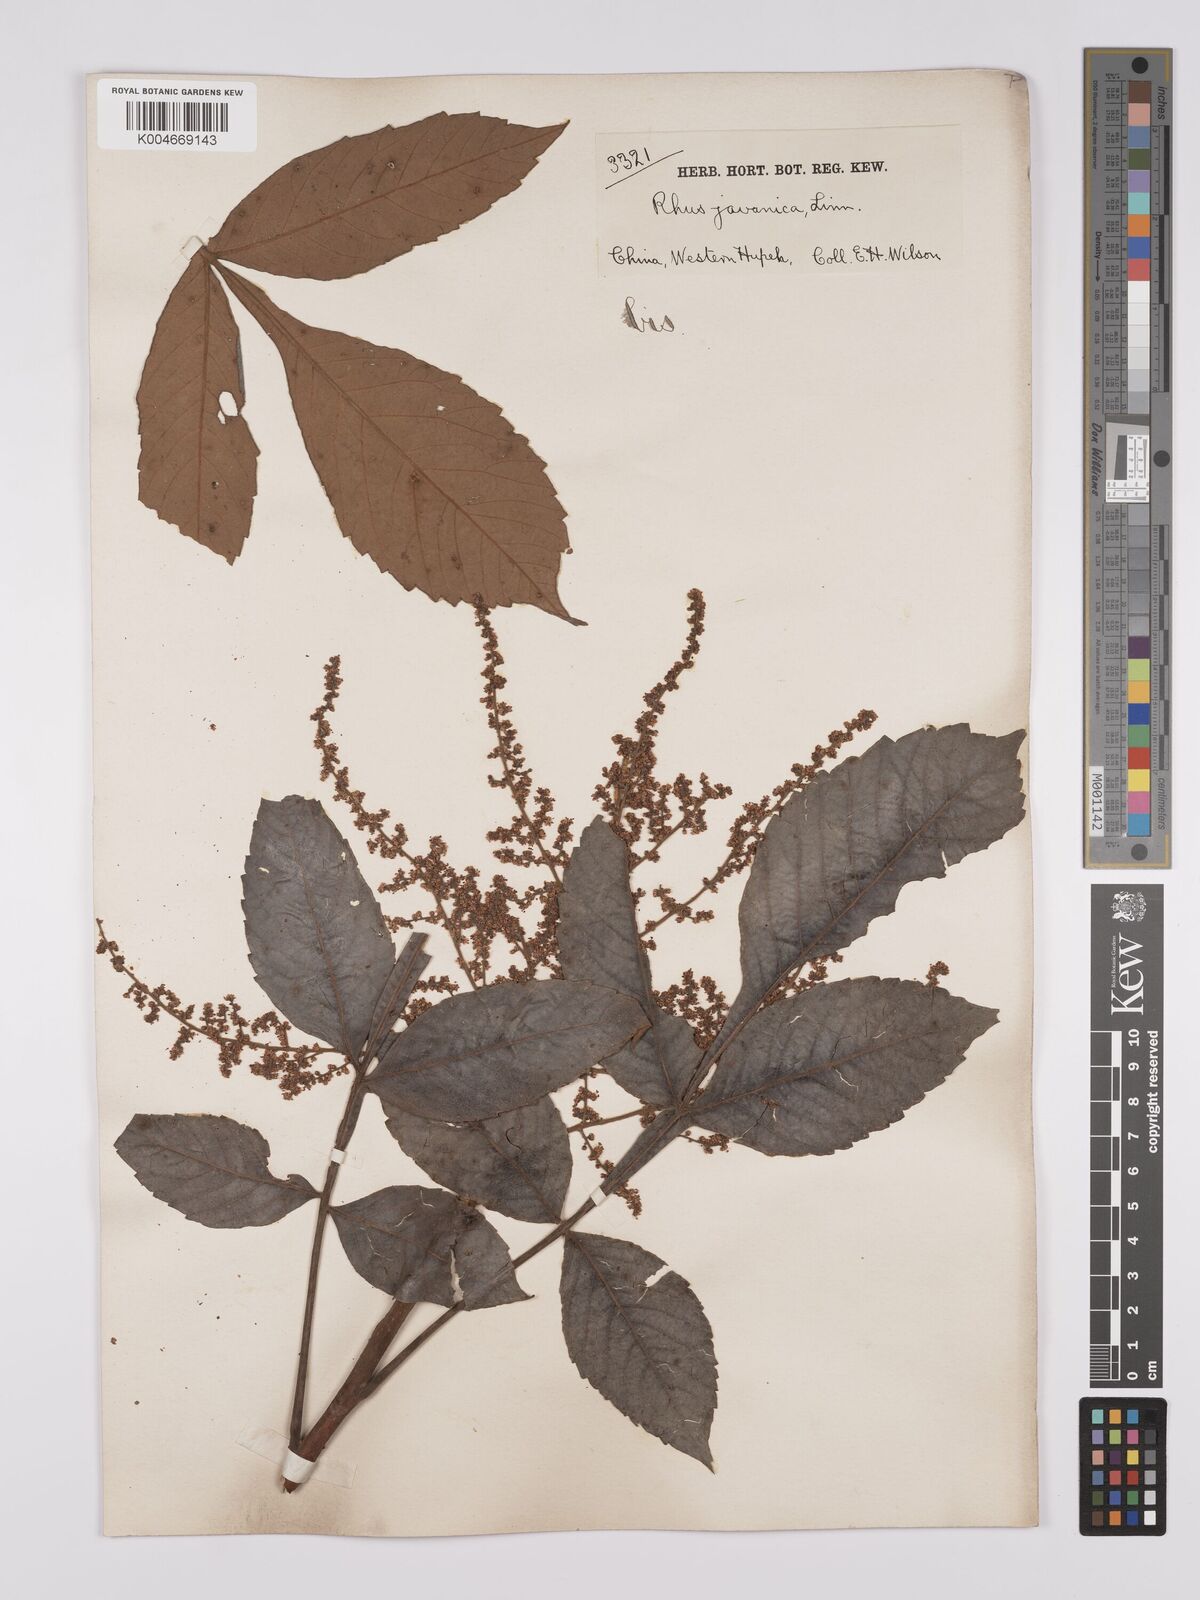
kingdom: Plantae
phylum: Tracheophyta
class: Magnoliopsida
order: Sapindales
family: Simaroubaceae
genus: Brucea
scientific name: Brucea javanica
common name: Macassar kernels
